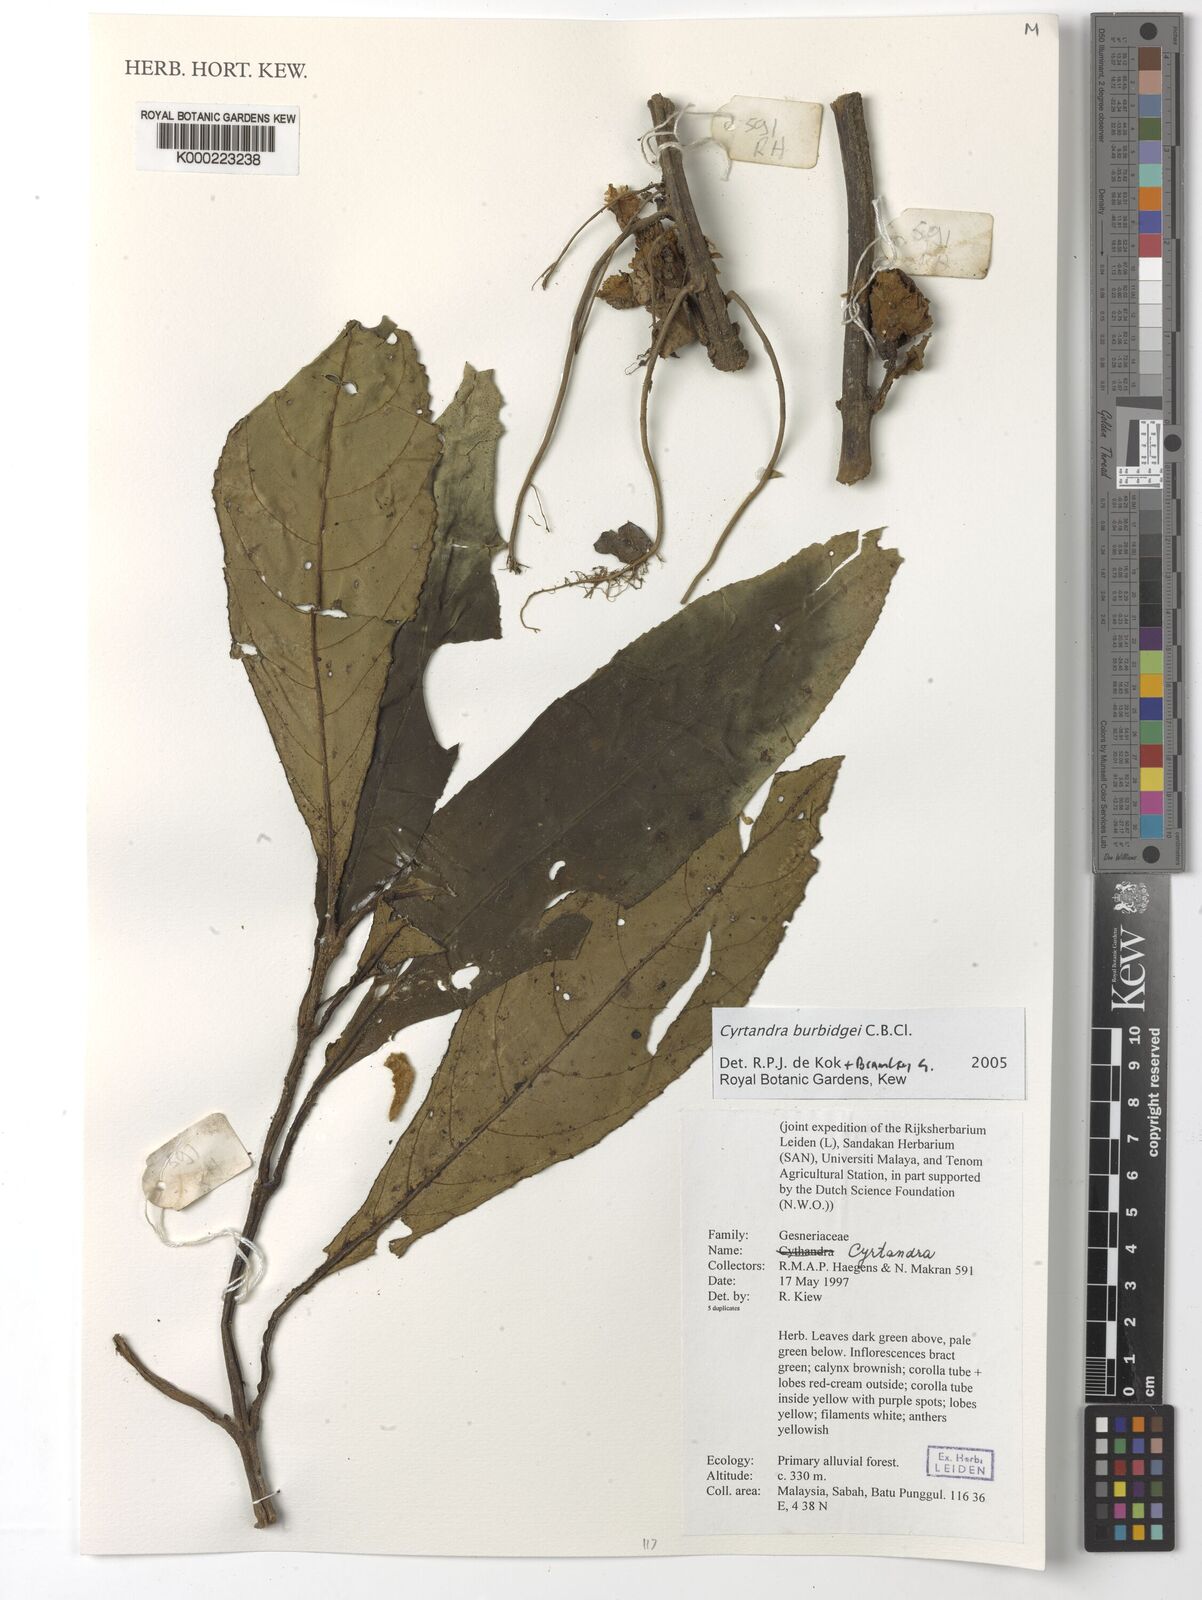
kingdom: Plantae
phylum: Tracheophyta
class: Magnoliopsida
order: Lamiales
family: Gesneriaceae
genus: Cyrtandra
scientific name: Cyrtandra
